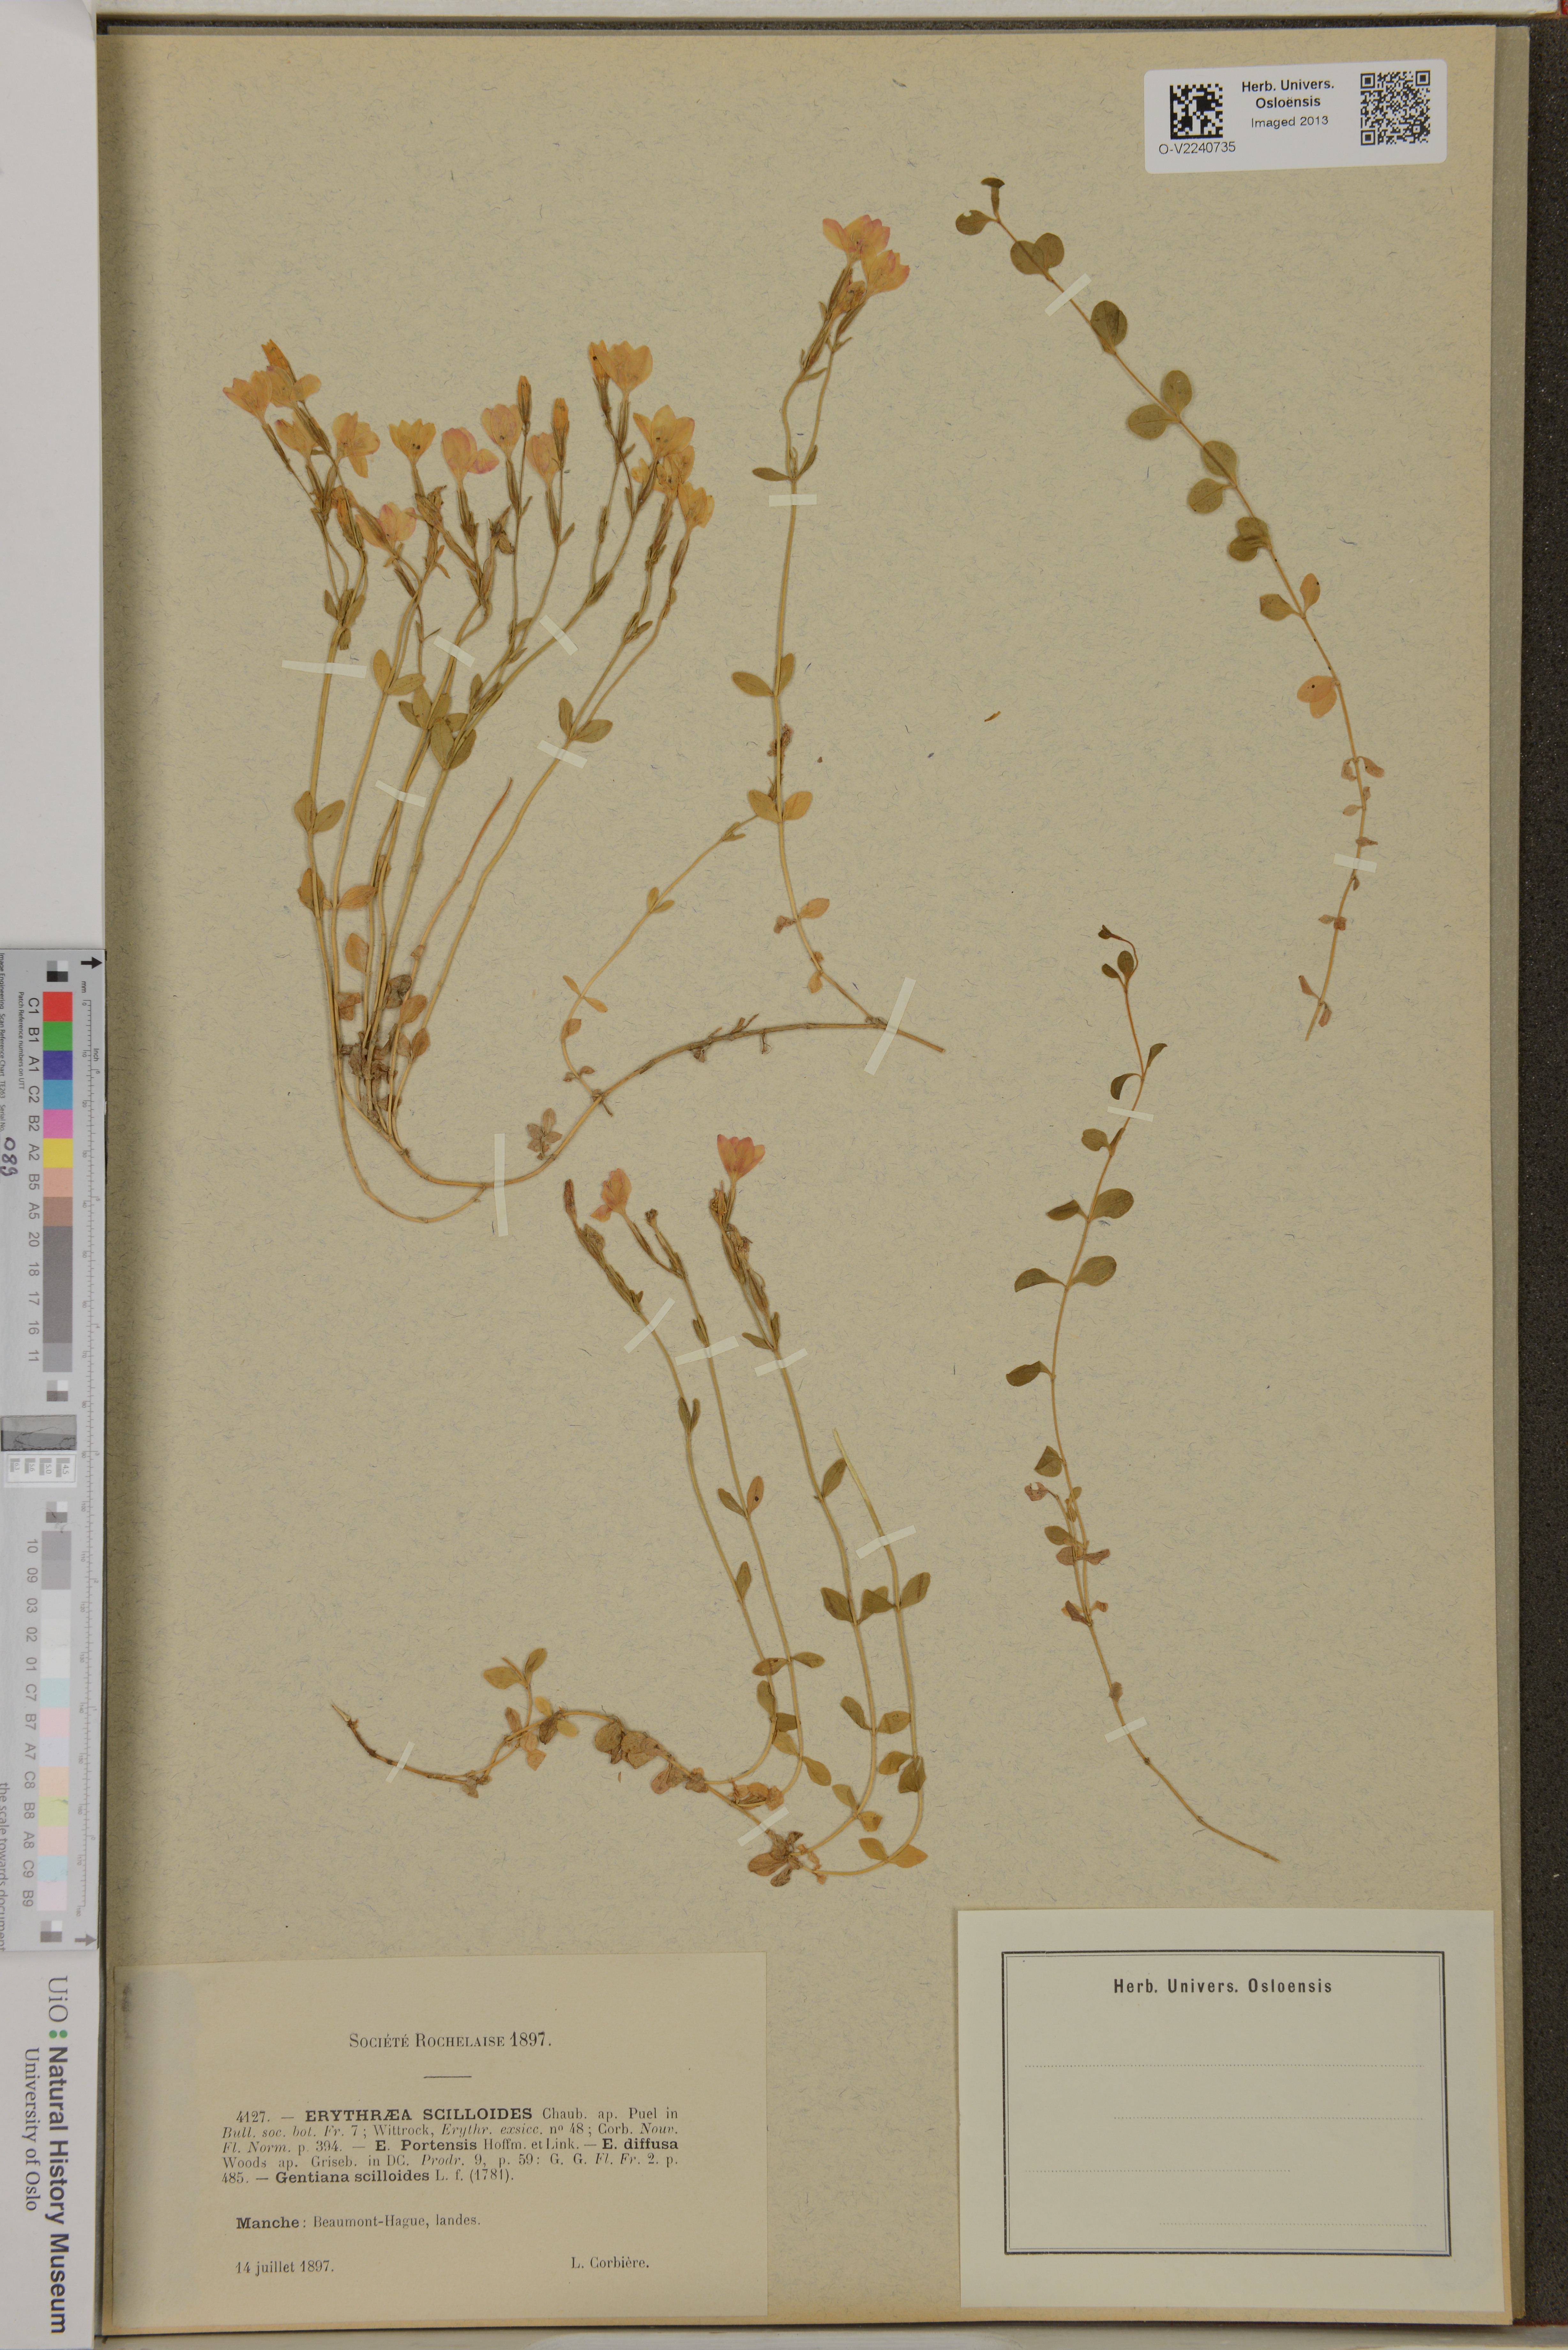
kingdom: Plantae
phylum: Tracheophyta
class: Magnoliopsida
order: Gentianales
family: Gentianaceae
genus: Centaurium
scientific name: Centaurium scilloides
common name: Perennial centaury
